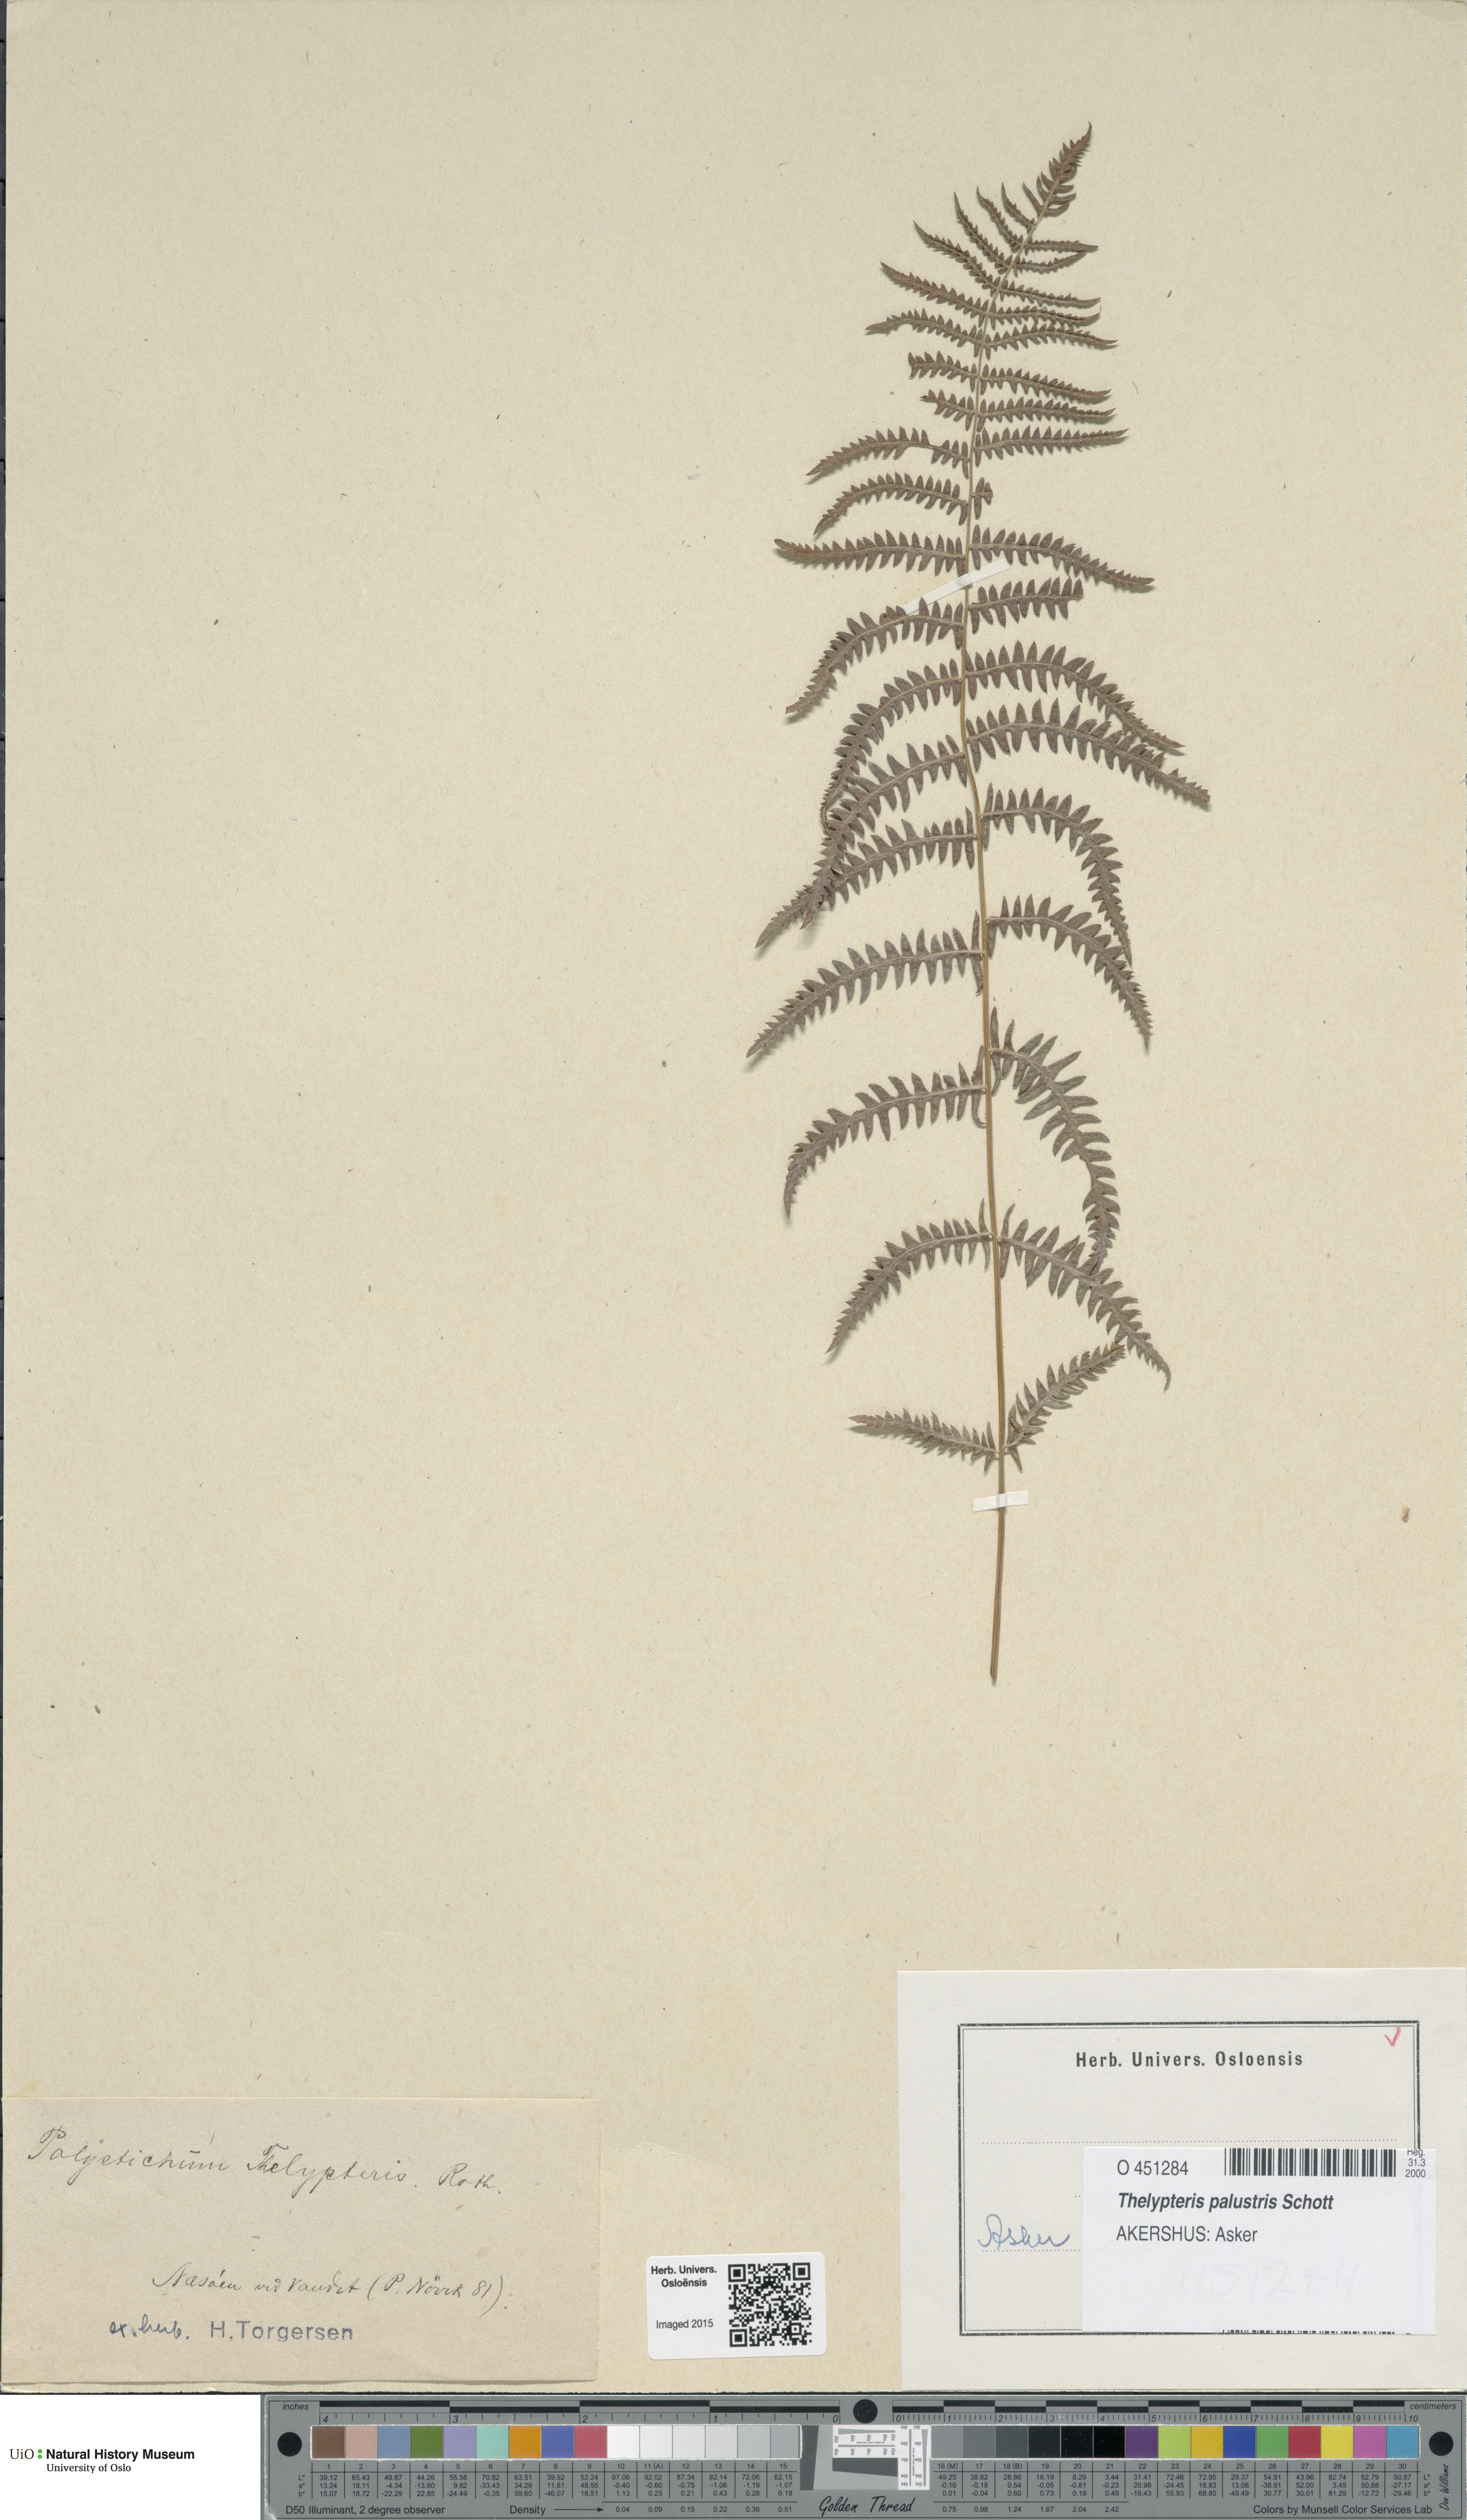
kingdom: Plantae
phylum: Tracheophyta
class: Polypodiopsida
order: Polypodiales
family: Thelypteridaceae
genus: Thelypteris
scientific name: Thelypteris palustris
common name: Marsh fern
